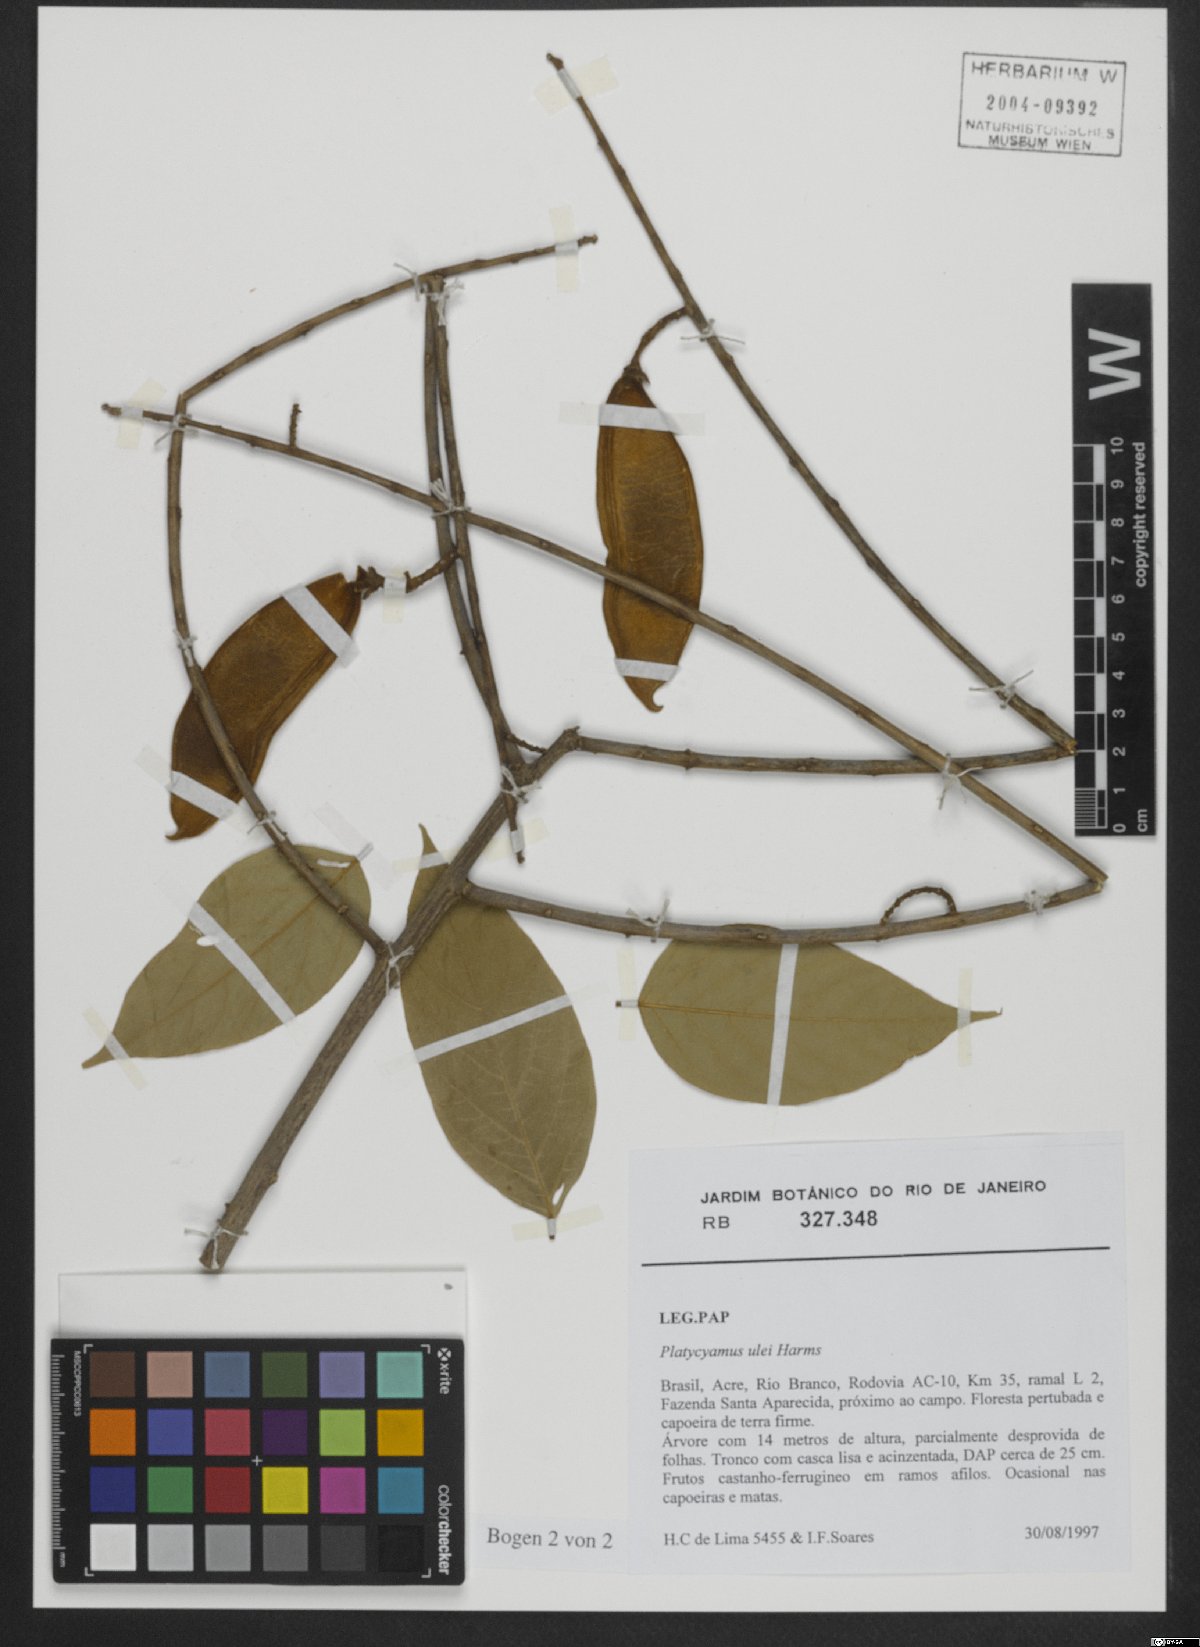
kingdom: Plantae
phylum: Tracheophyta
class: Magnoliopsida
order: Fabales
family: Fabaceae
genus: Platycyamus
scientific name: Platycyamus ulei
